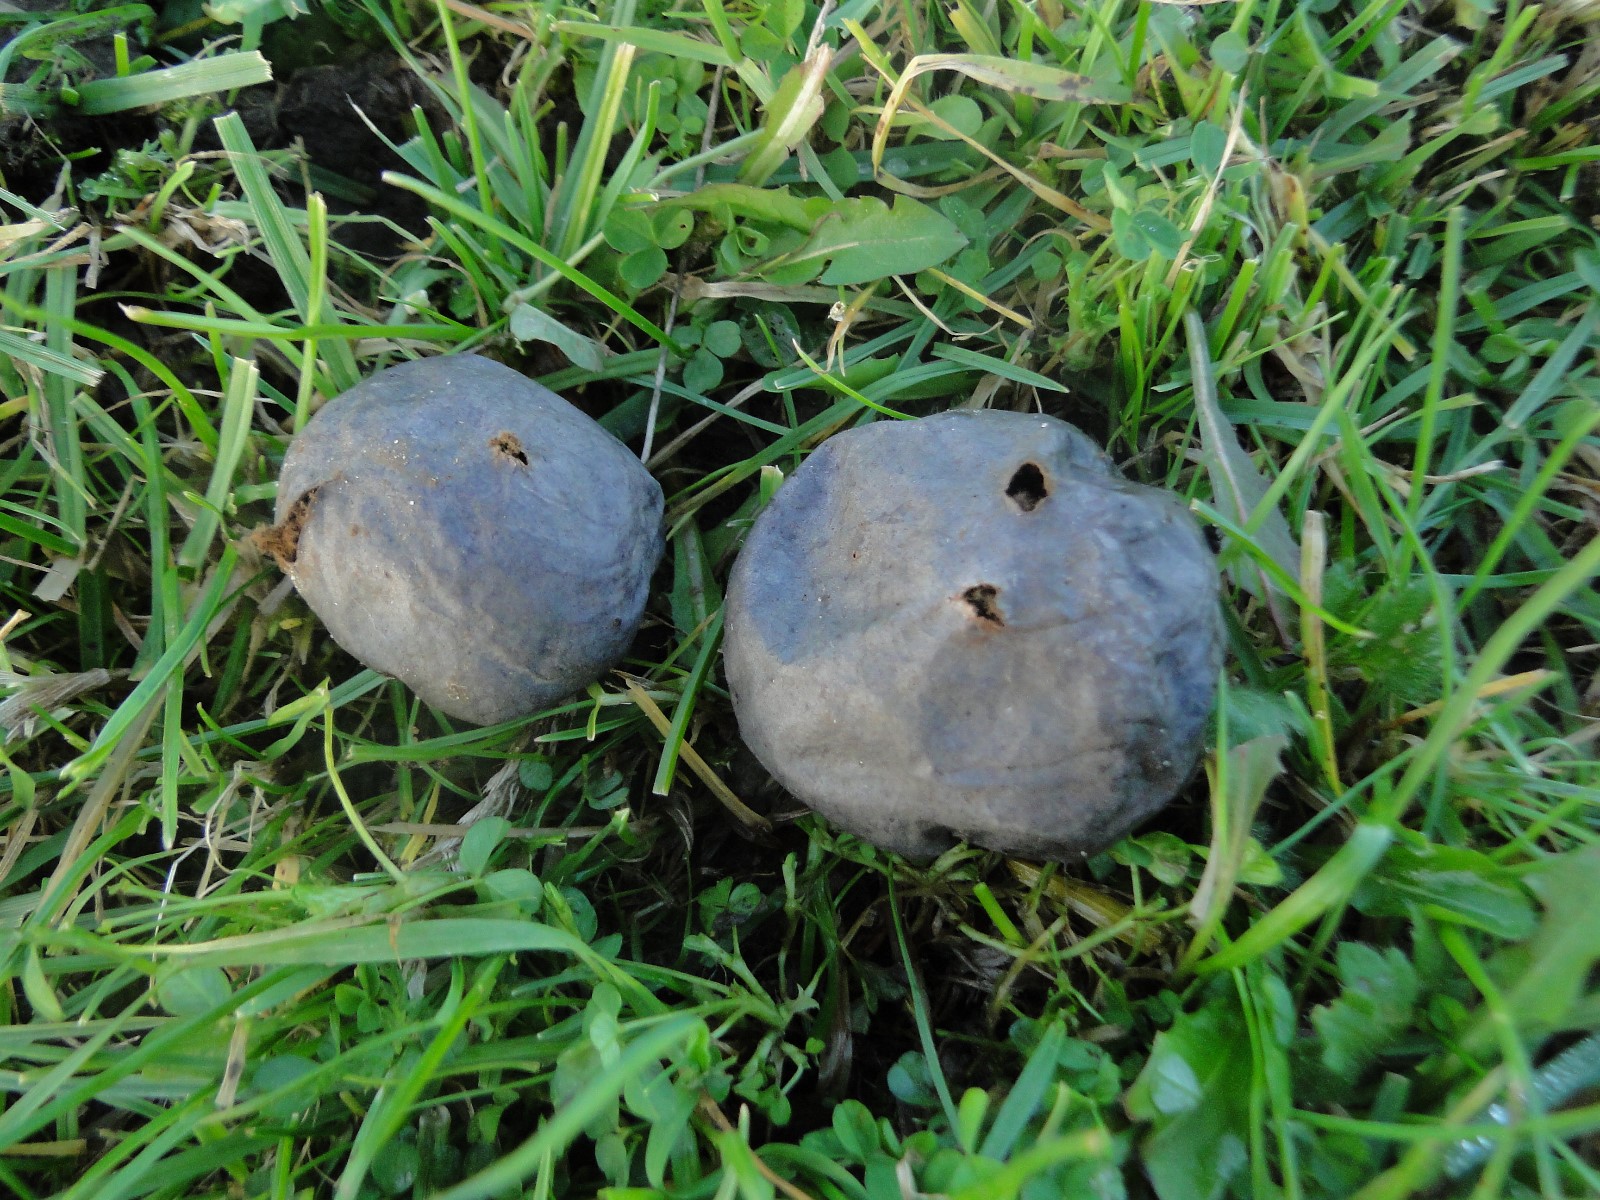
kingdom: Fungi
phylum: Basidiomycota
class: Agaricomycetes
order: Agaricales
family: Lycoperdaceae
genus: Bovista
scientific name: Bovista plumbea
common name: blygrå bovist
